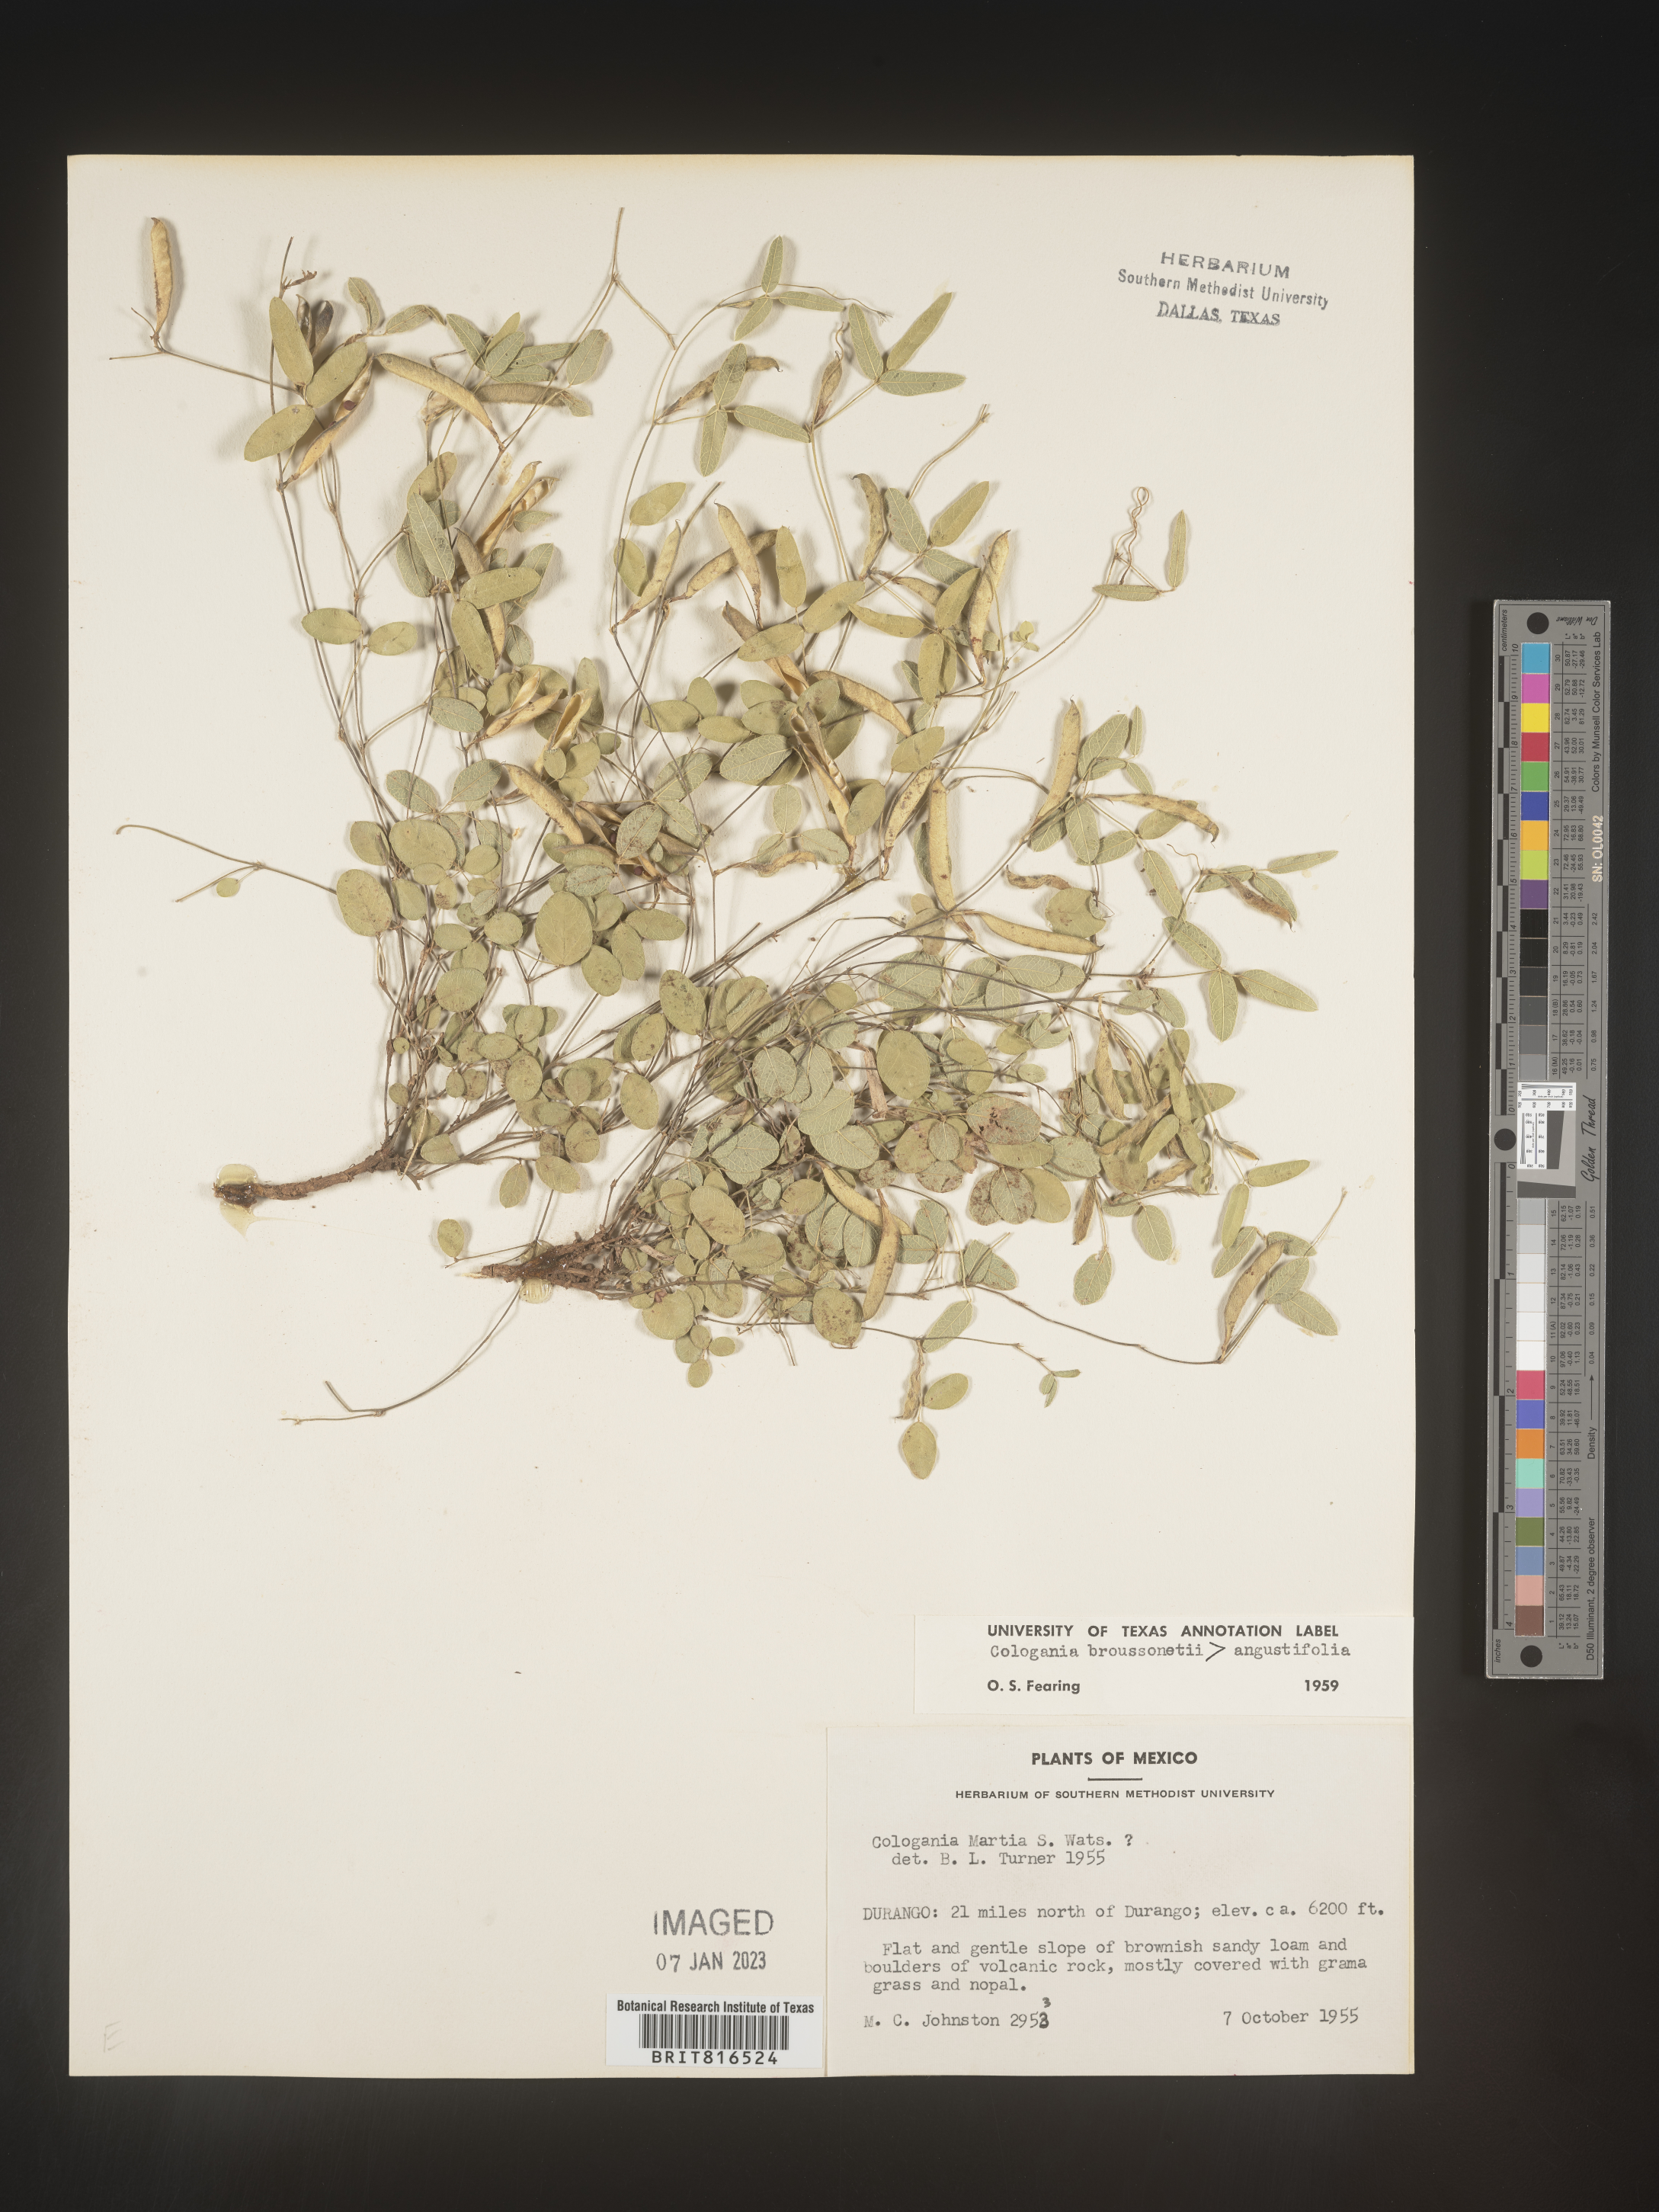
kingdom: Plantae
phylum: Tracheophyta
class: Magnoliopsida
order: Fabales
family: Fabaceae
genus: Cologania
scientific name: Cologania biloba
